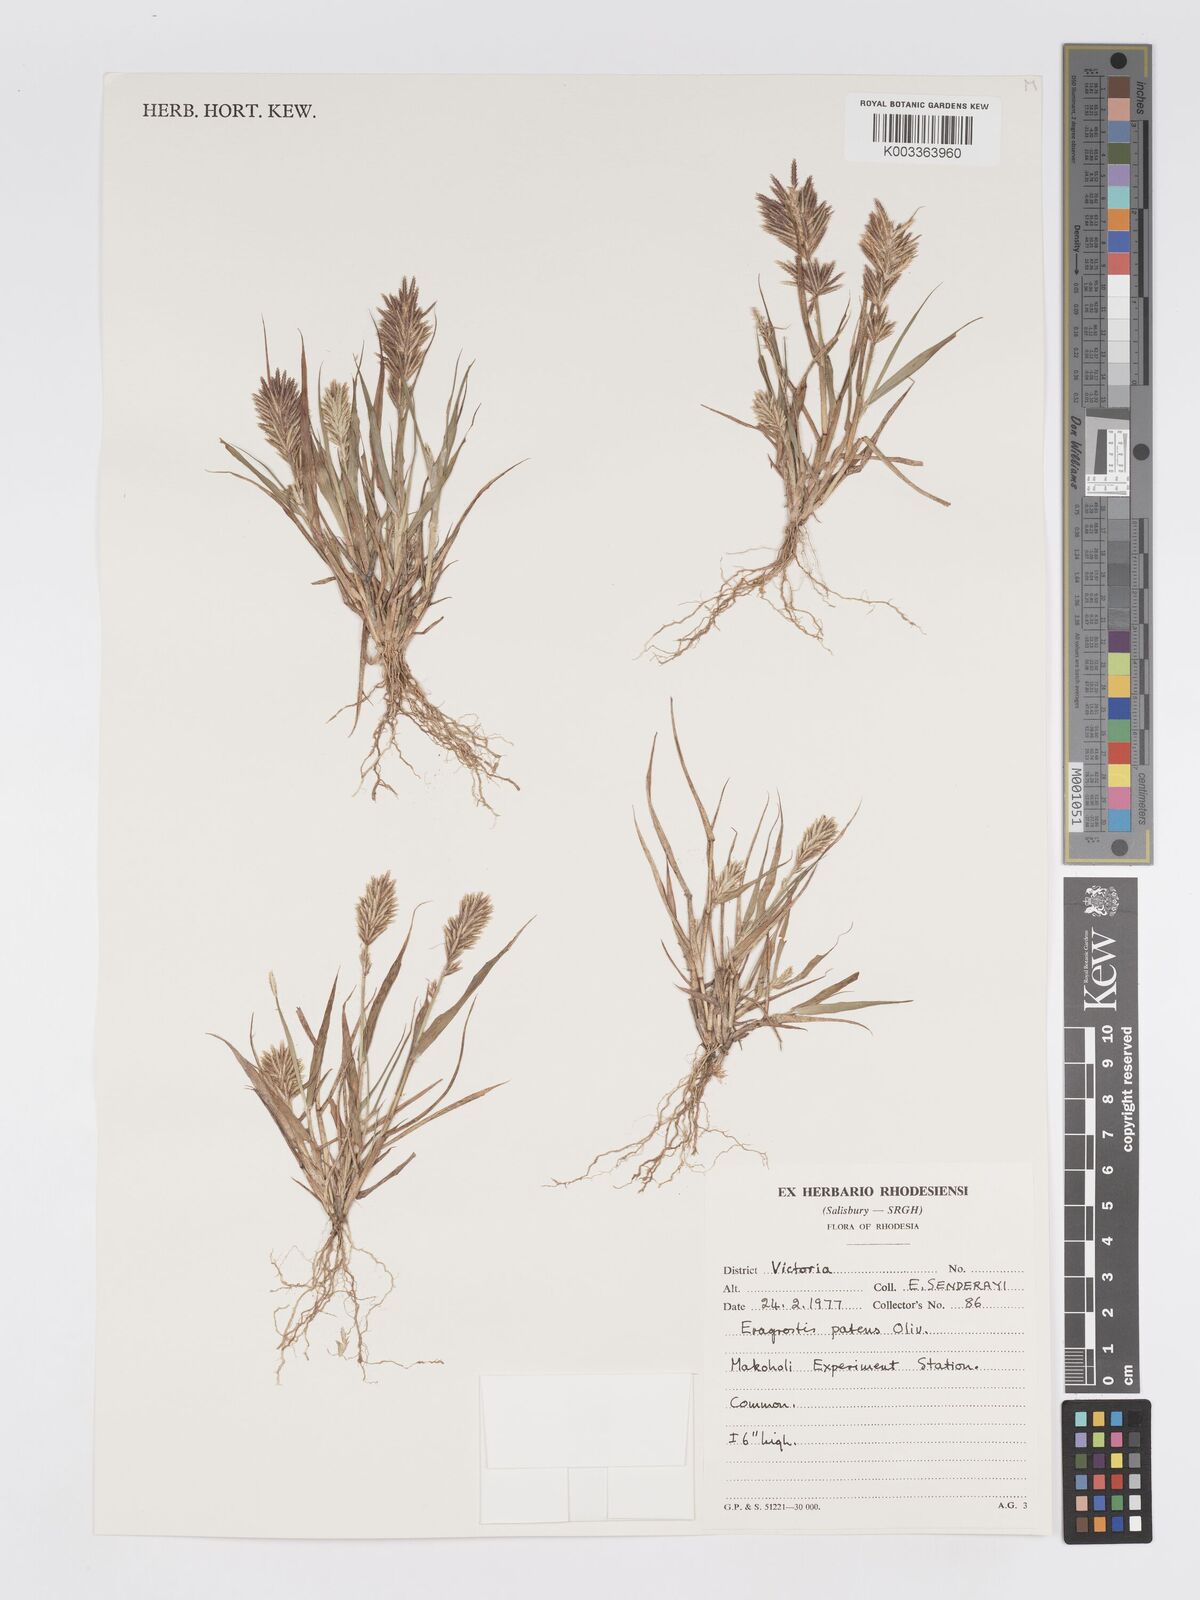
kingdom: Plantae
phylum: Tracheophyta
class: Liliopsida
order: Poales
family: Poaceae
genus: Eragrostis
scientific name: Eragrostis patens
